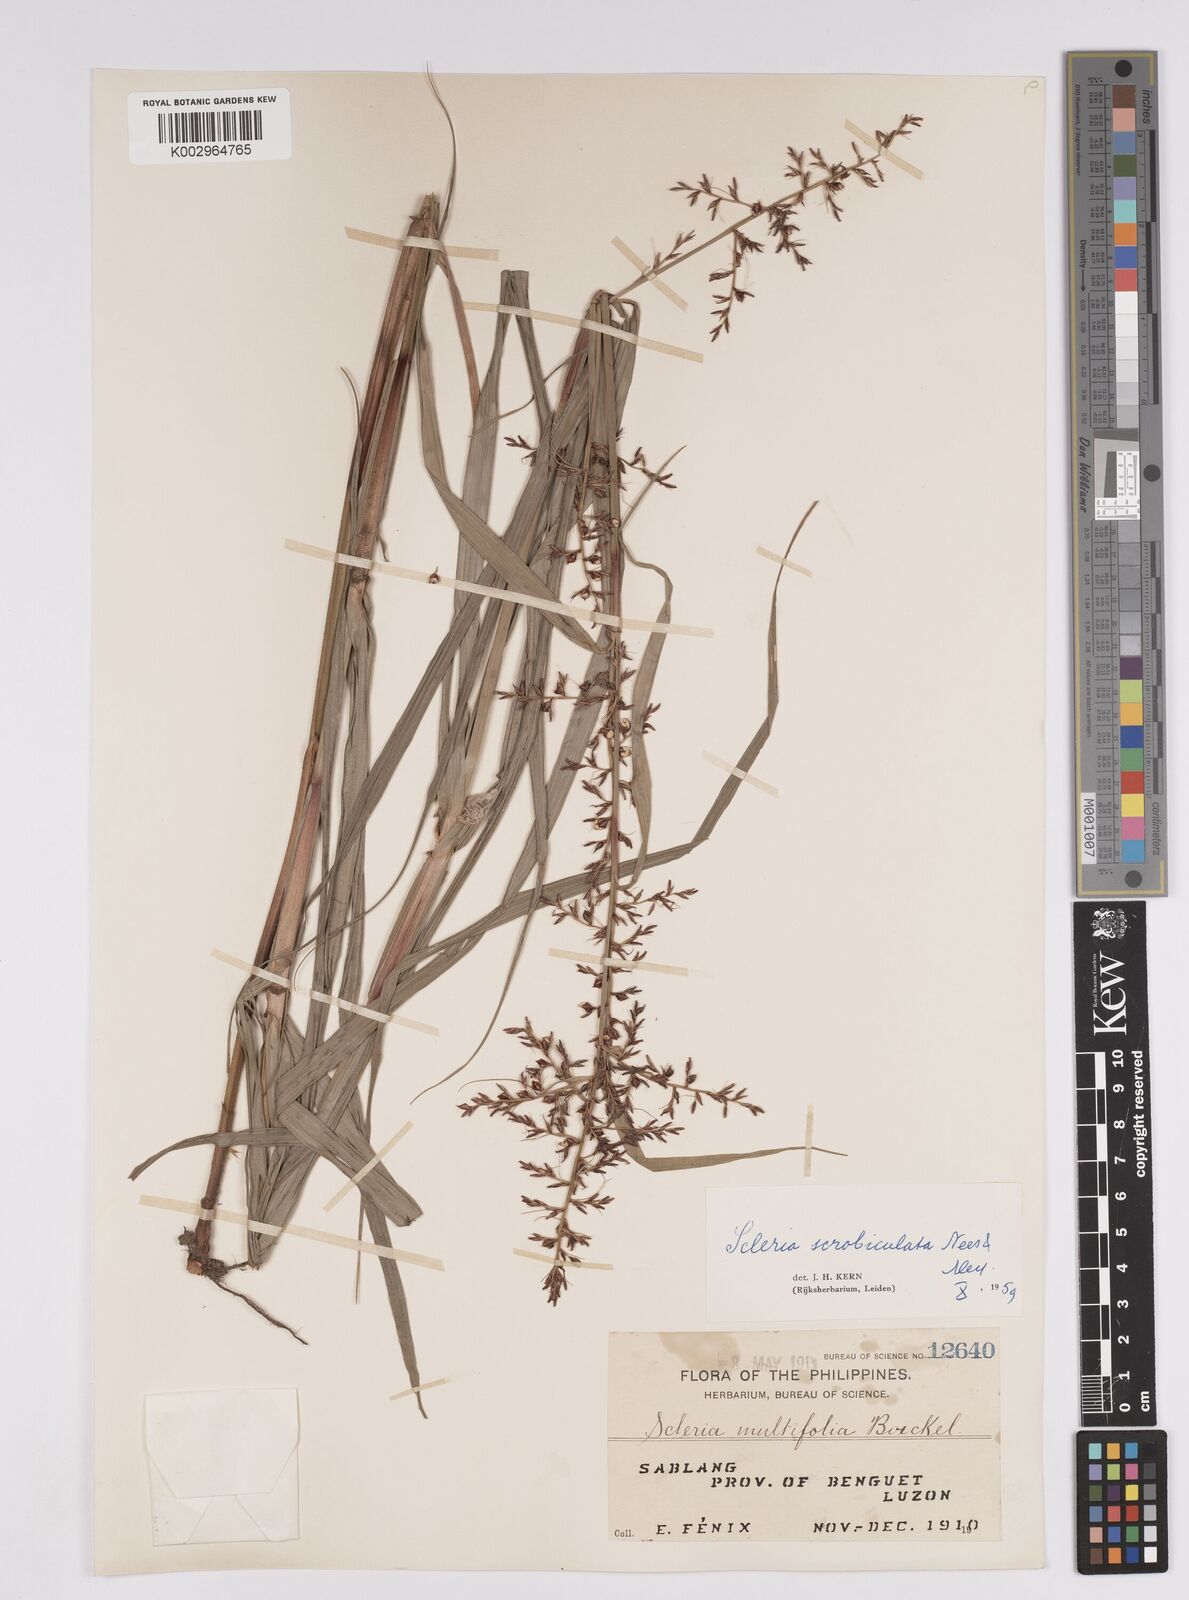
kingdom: Plantae
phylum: Tracheophyta
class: Liliopsida
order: Poales
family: Cyperaceae
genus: Scleria
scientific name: Scleria scrobiculata
